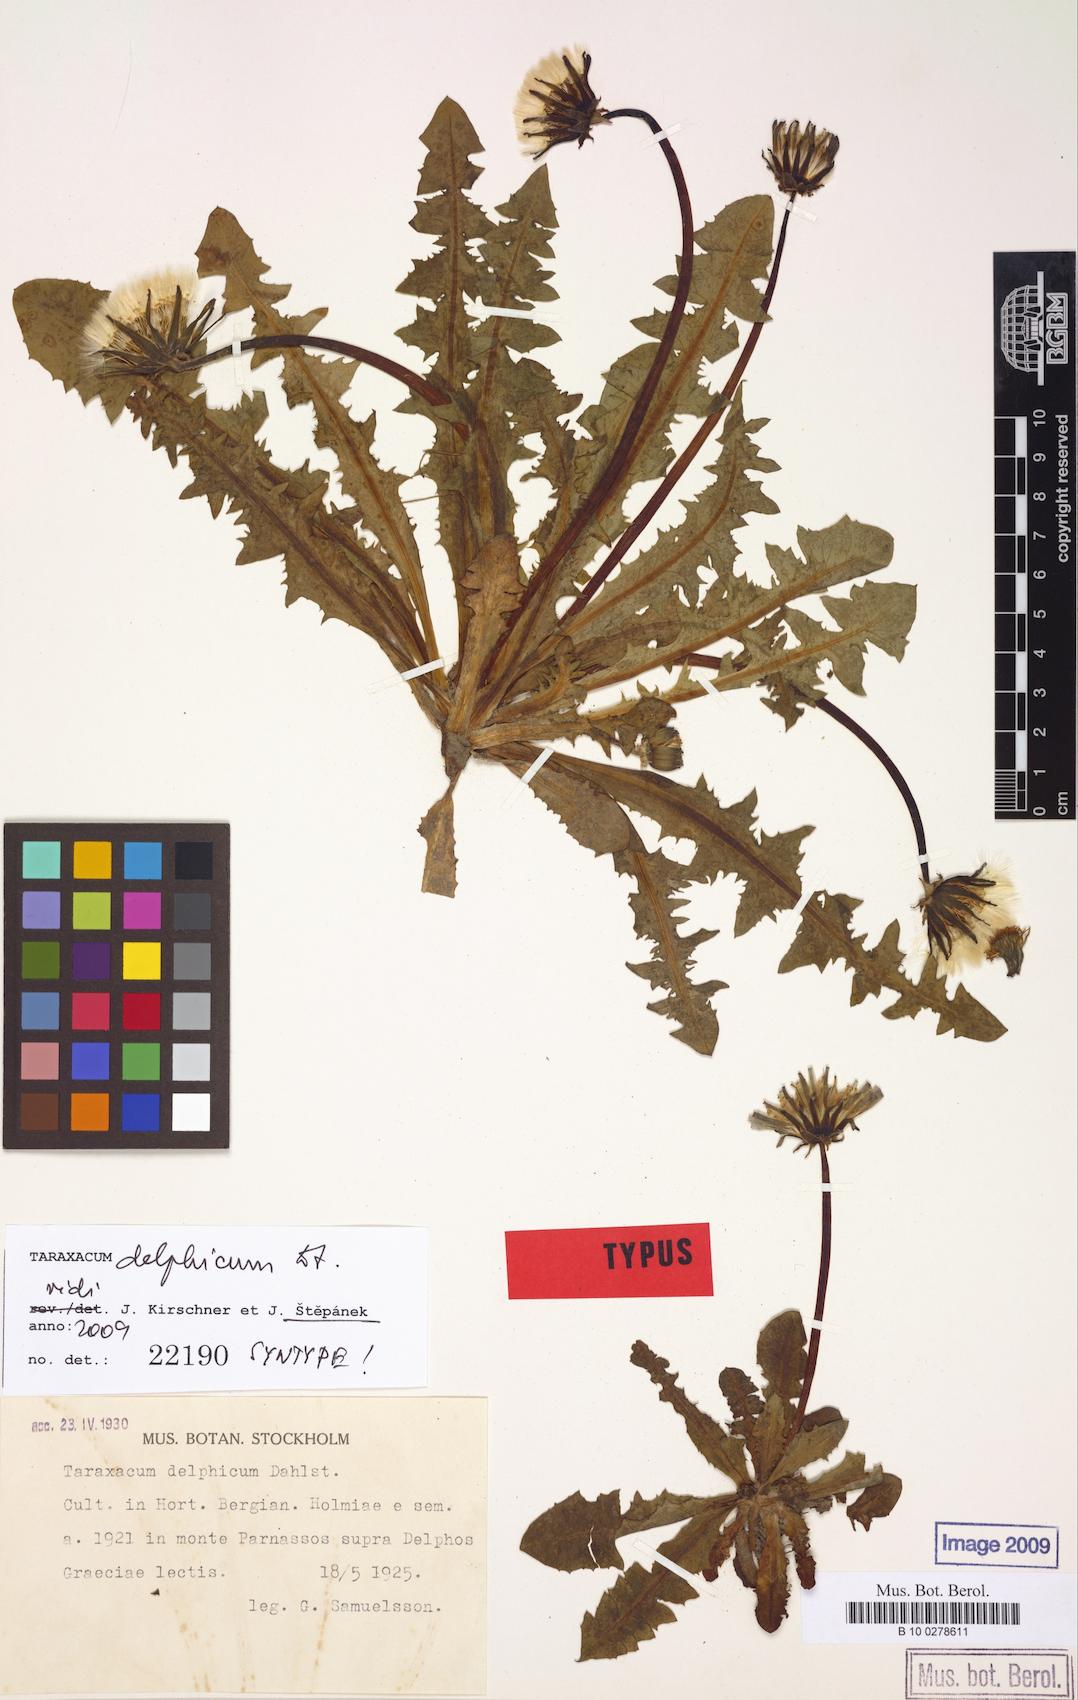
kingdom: Plantae
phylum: Tracheophyta
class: Magnoliopsida
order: Asterales
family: Asteraceae
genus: Taraxacum
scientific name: Taraxacum delphicum
